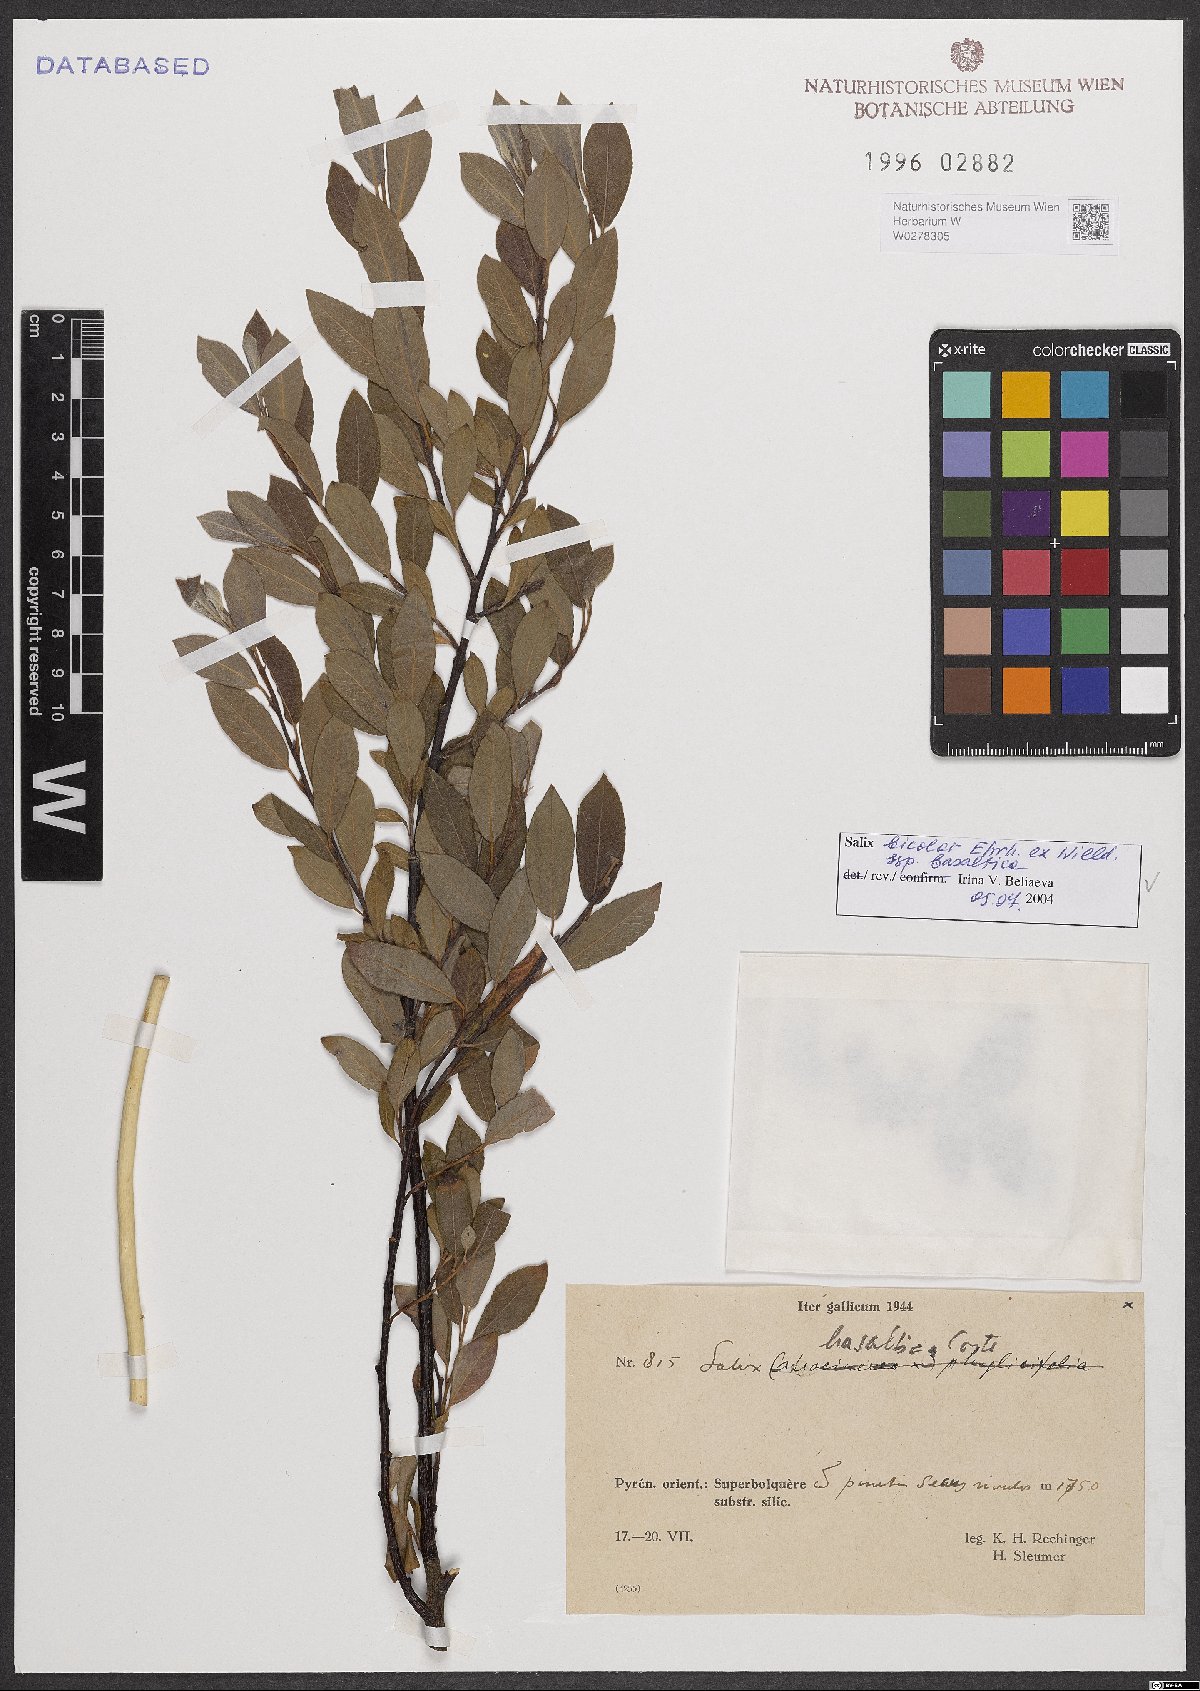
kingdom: Plantae
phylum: Tracheophyta
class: Magnoliopsida
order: Malpighiales
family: Salicaceae
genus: Salix
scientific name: Salix basaltica
